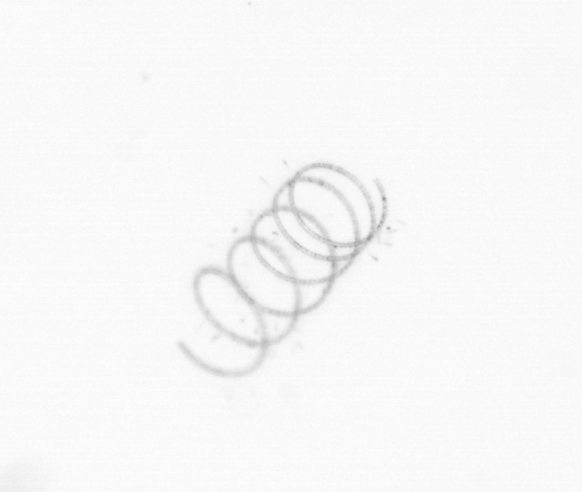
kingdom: Chromista
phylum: Ochrophyta
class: Bacillariophyceae
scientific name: Bacillariophyceae
